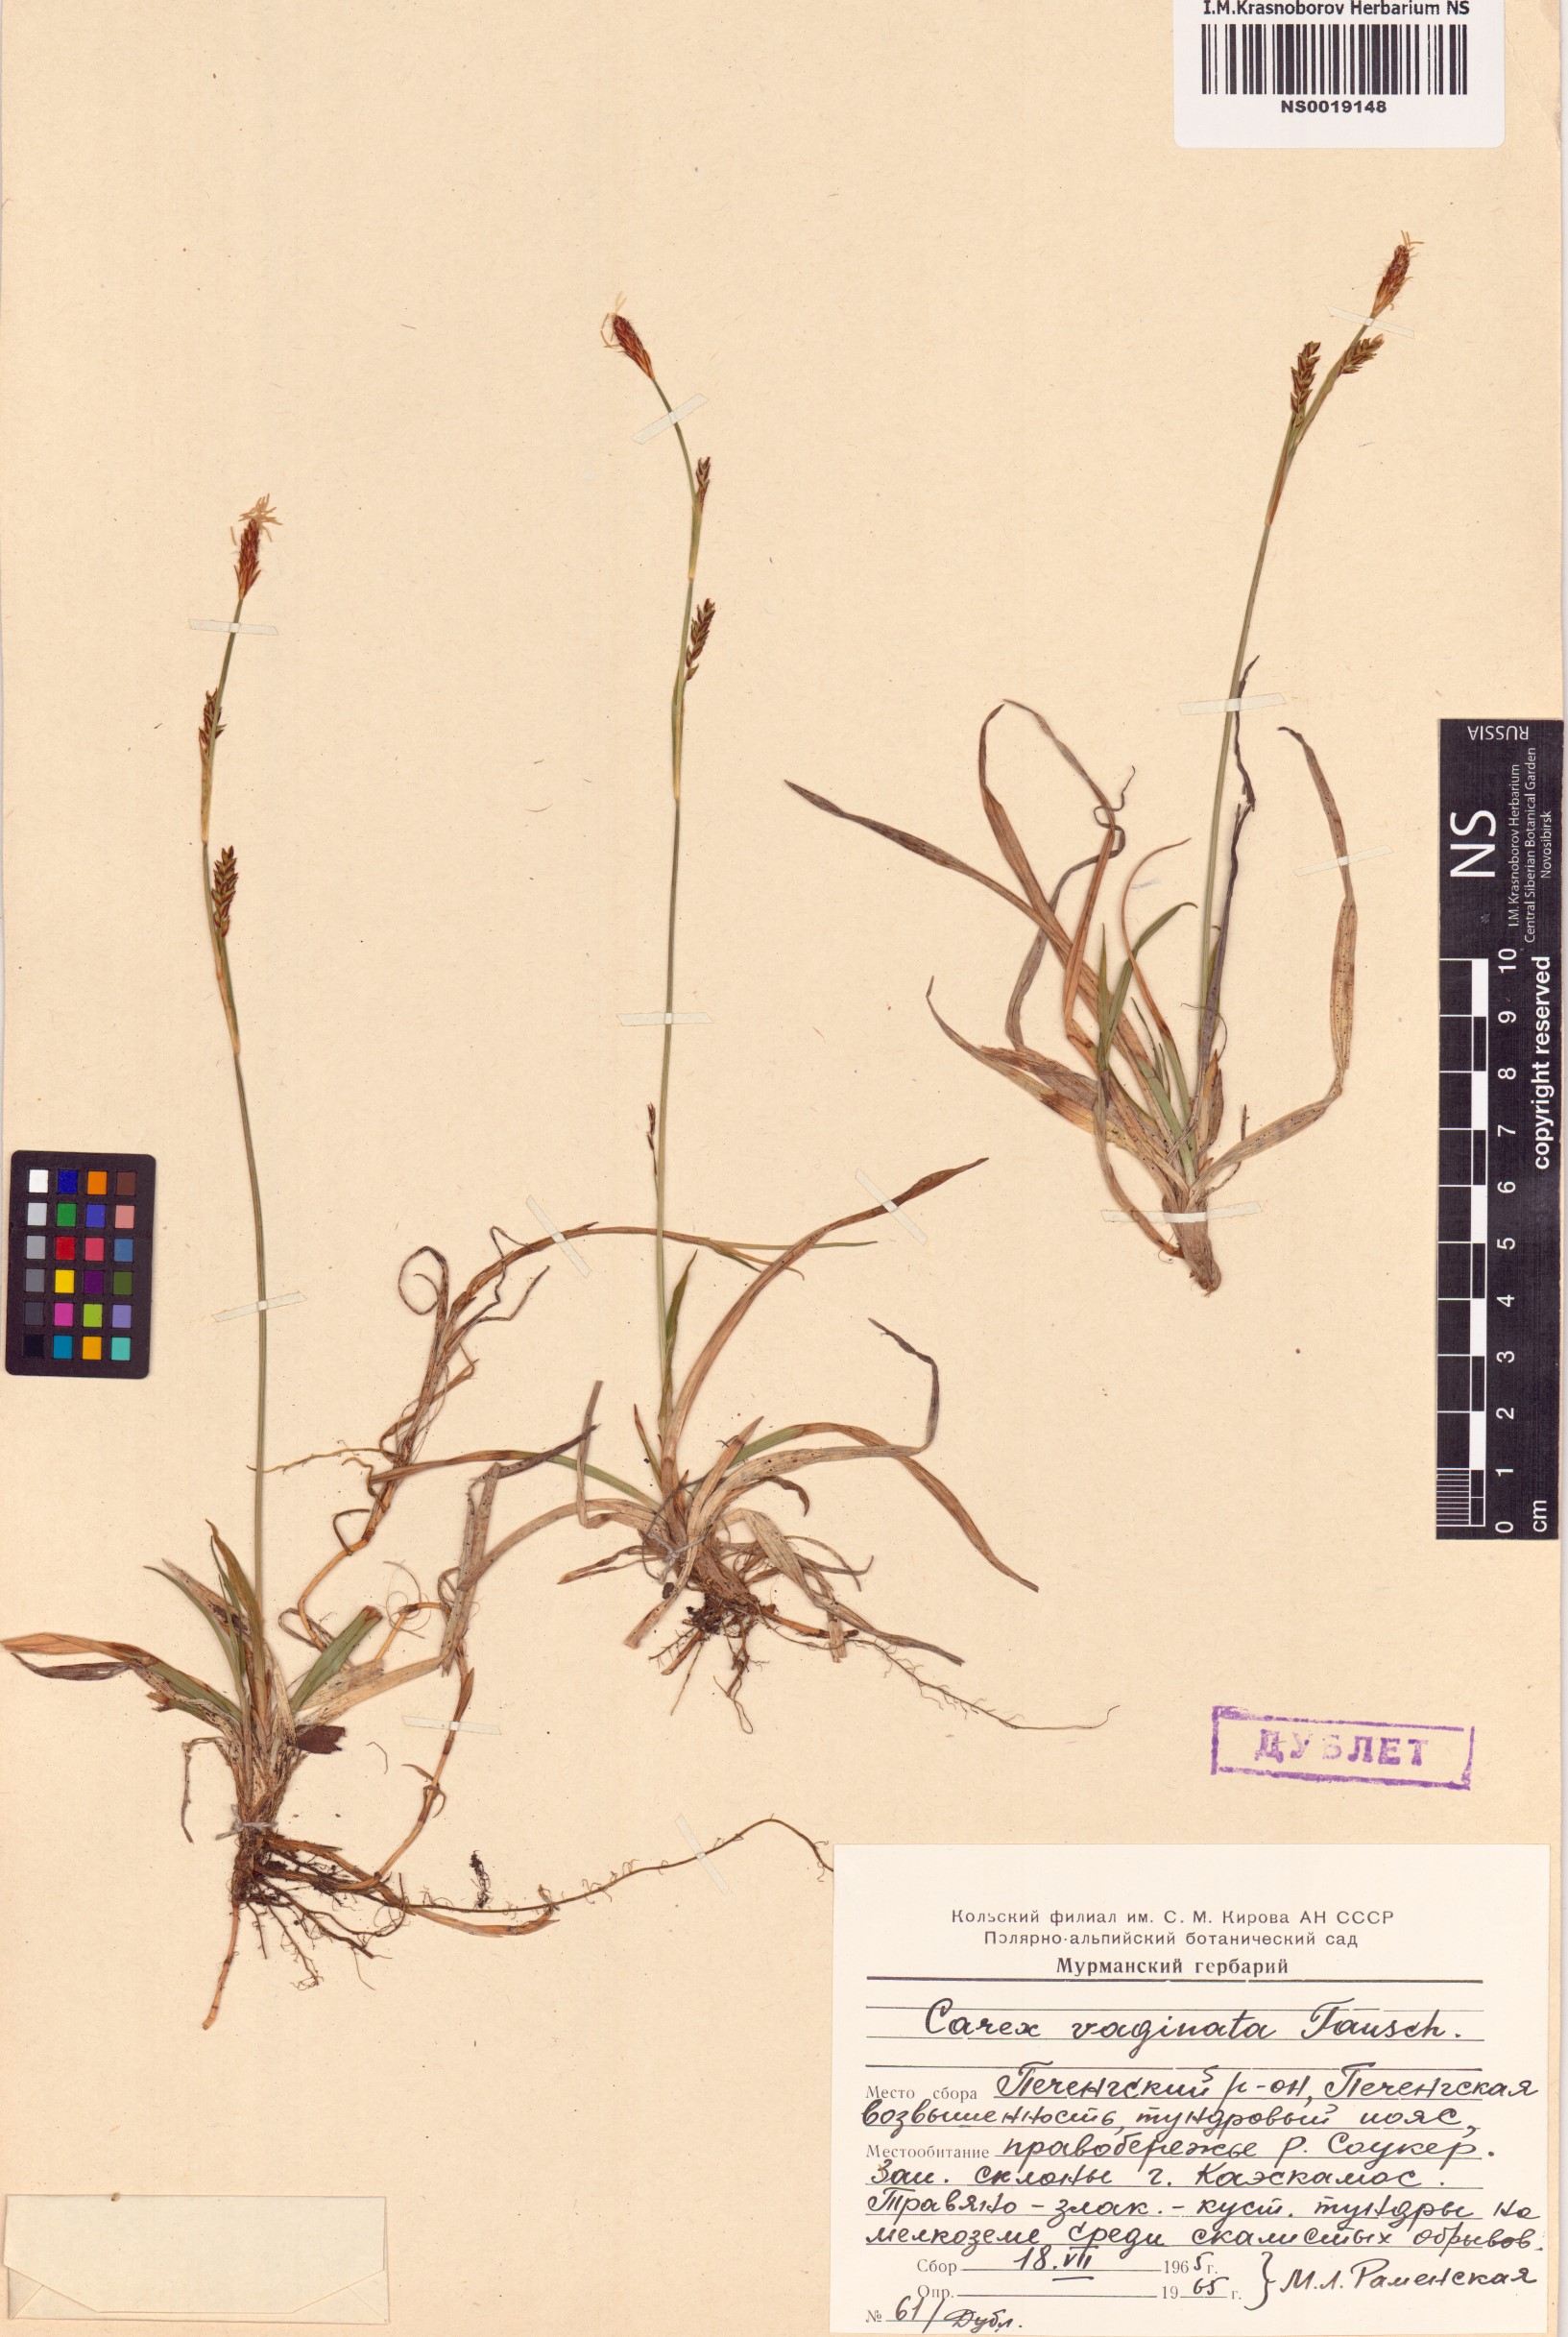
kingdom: Plantae
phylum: Tracheophyta
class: Liliopsida
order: Poales
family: Cyperaceae
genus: Carex
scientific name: Carex vaginata
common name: Sheathed sedge
